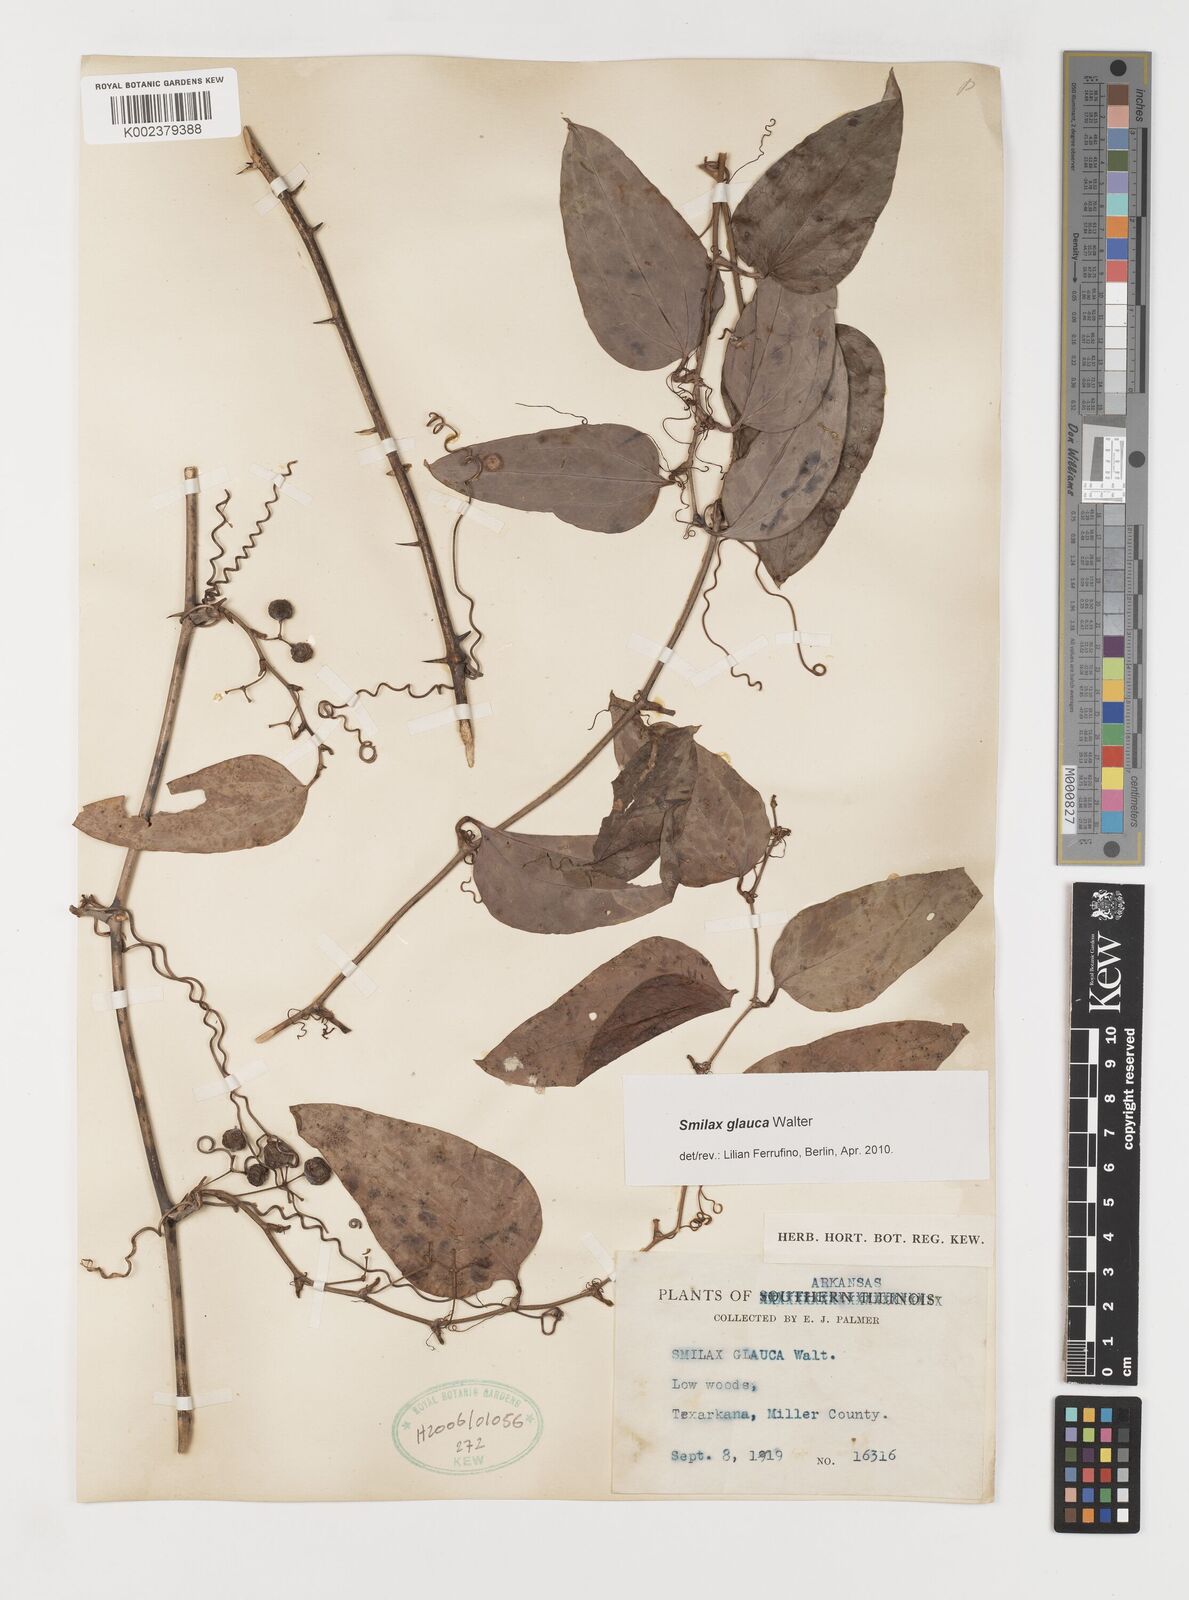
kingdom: Plantae
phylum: Tracheophyta
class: Liliopsida
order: Liliales
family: Smilacaceae
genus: Smilax
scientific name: Smilax glauca
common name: Cat greenbrier
